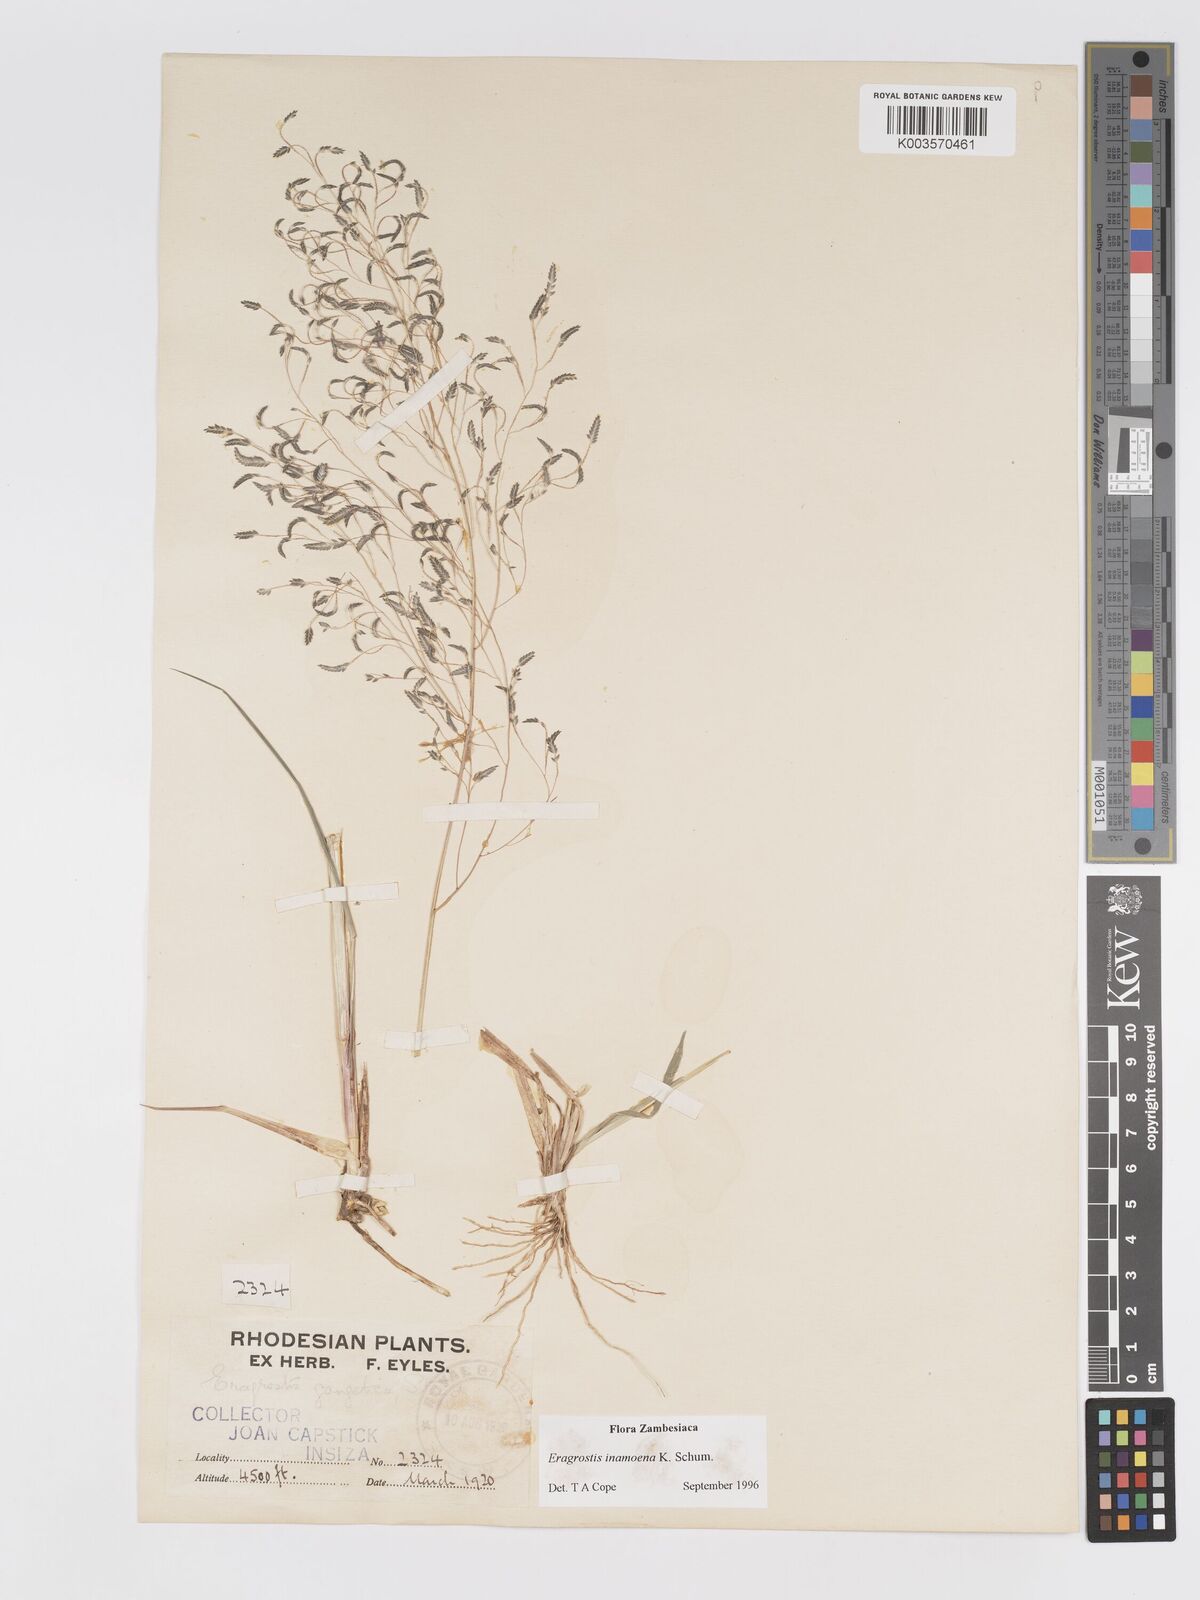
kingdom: Plantae
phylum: Tracheophyta
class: Liliopsida
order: Poales
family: Poaceae
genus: Eragrostis
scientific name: Eragrostis inamoena
